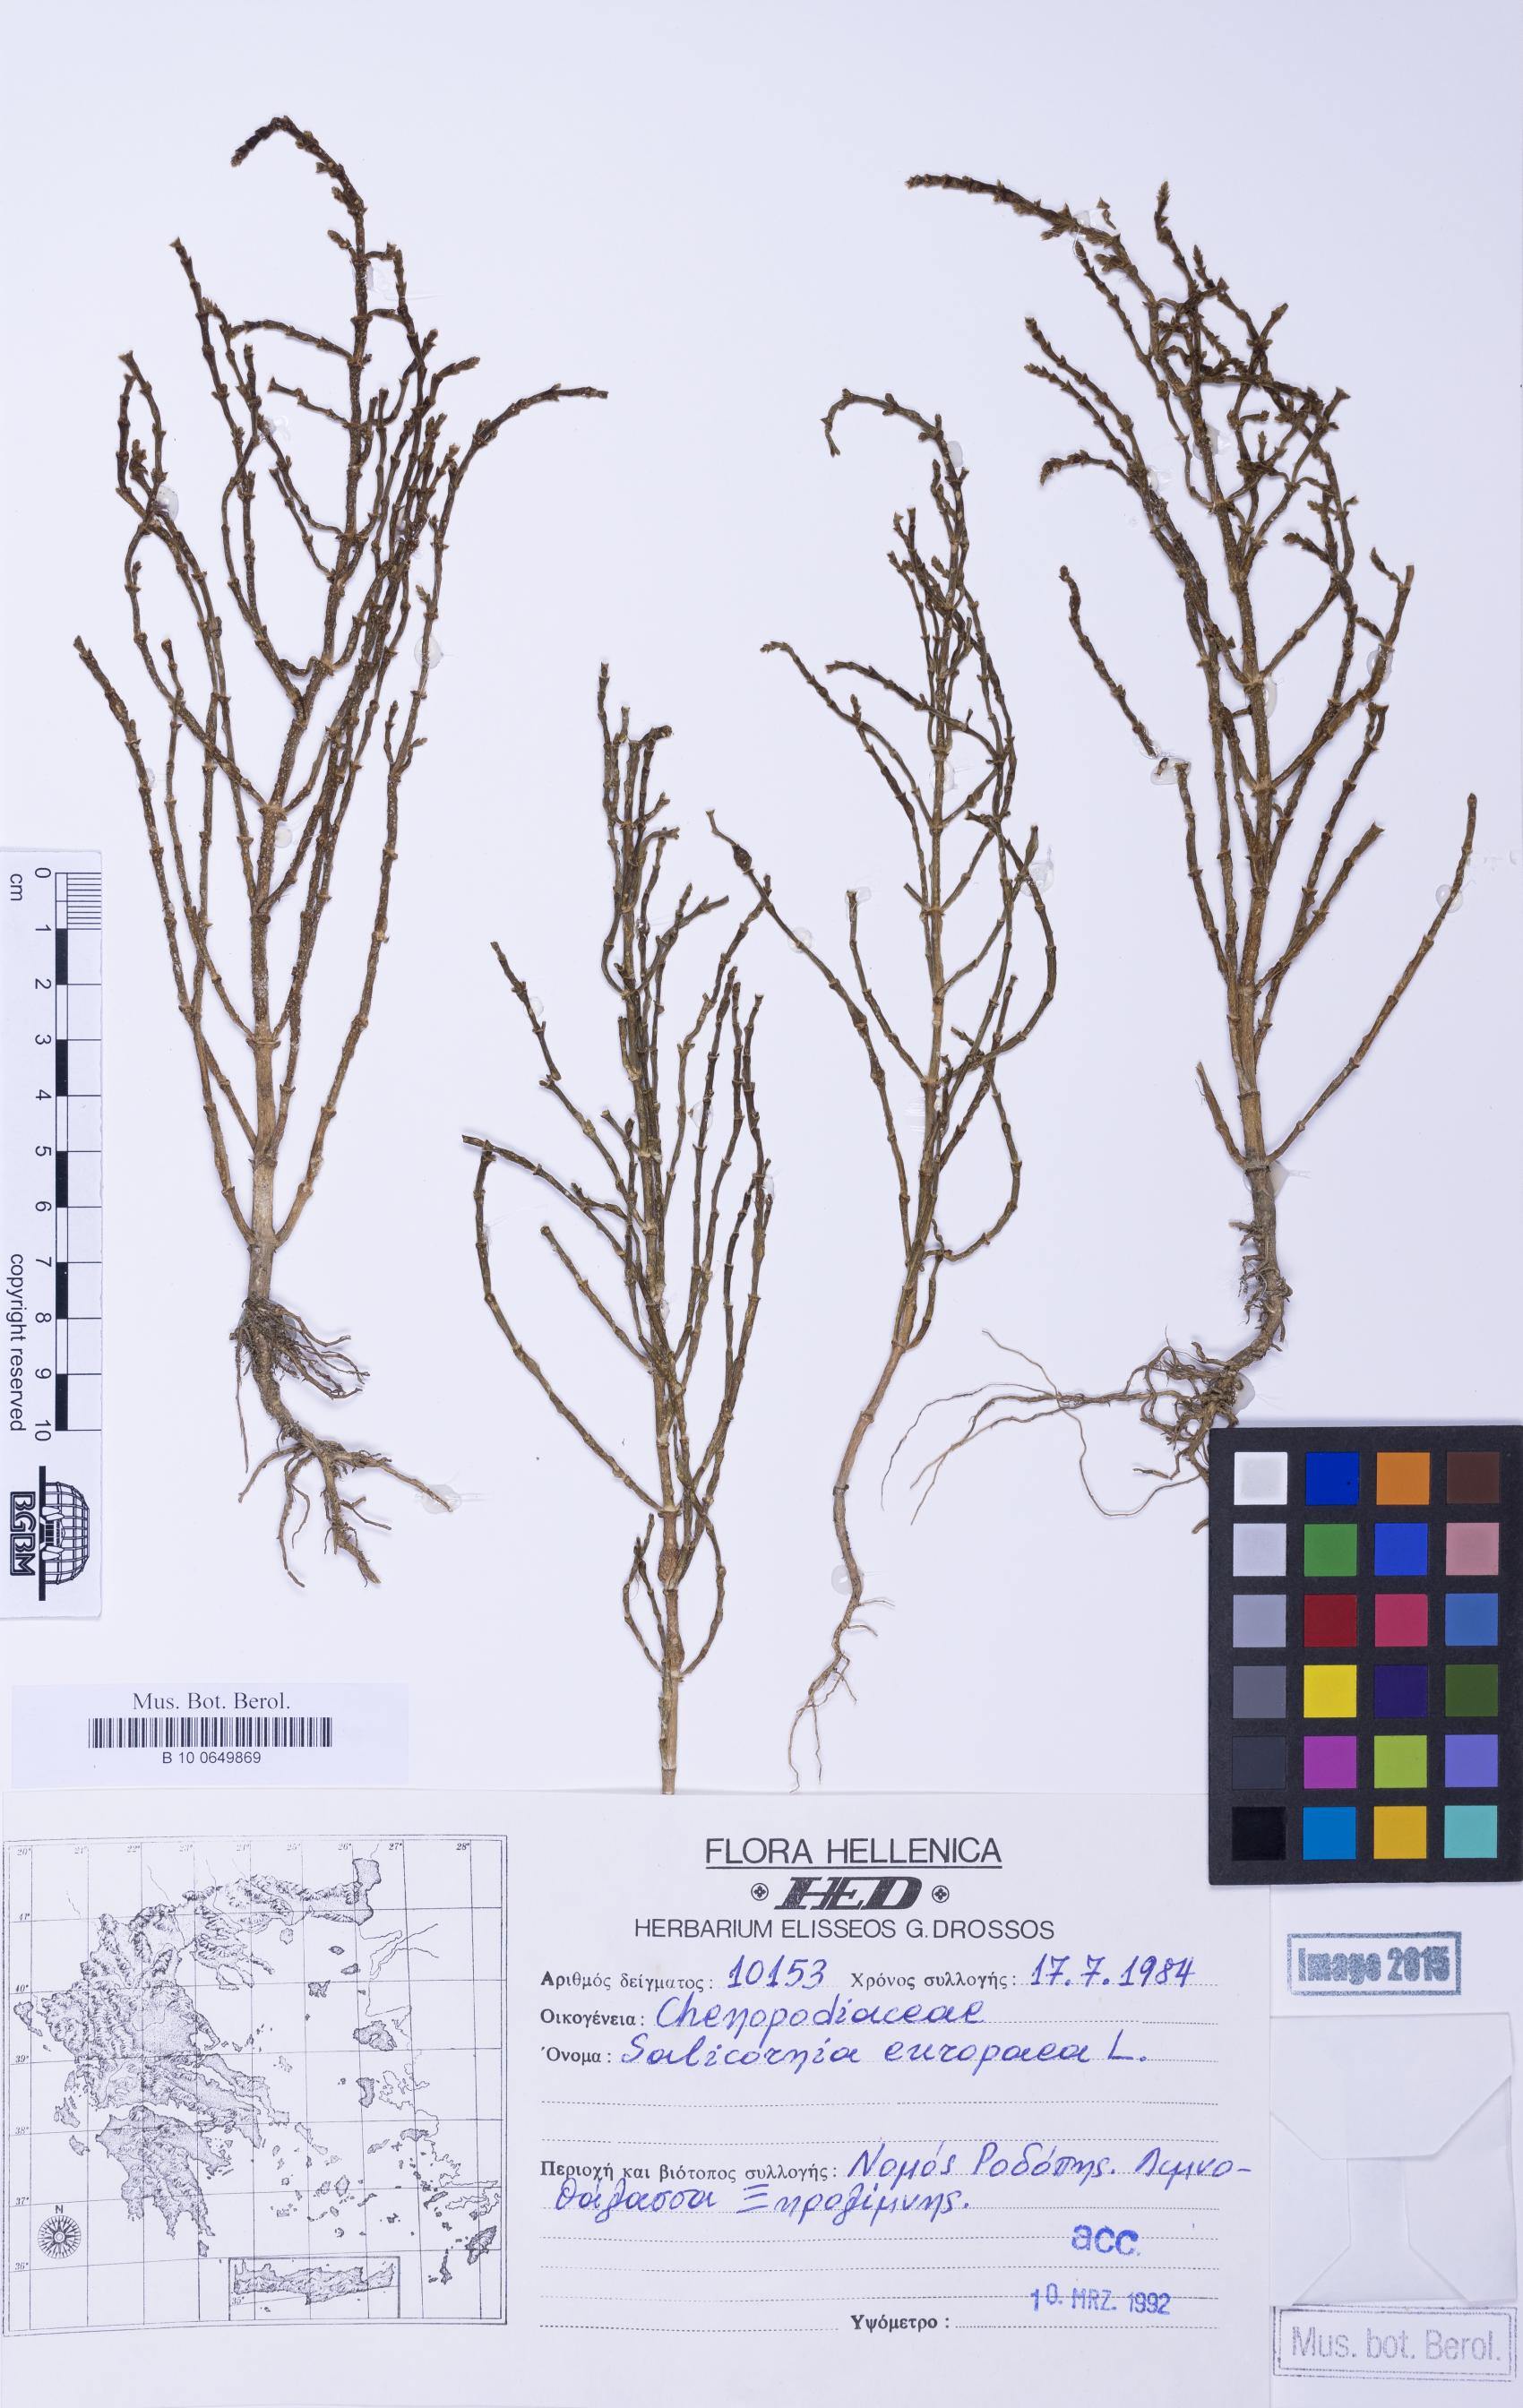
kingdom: Plantae
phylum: Tracheophyta
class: Magnoliopsida
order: Caryophyllales
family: Amaranthaceae
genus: Salicornia
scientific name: Salicornia procumbens
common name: Long-spiked glasswort
